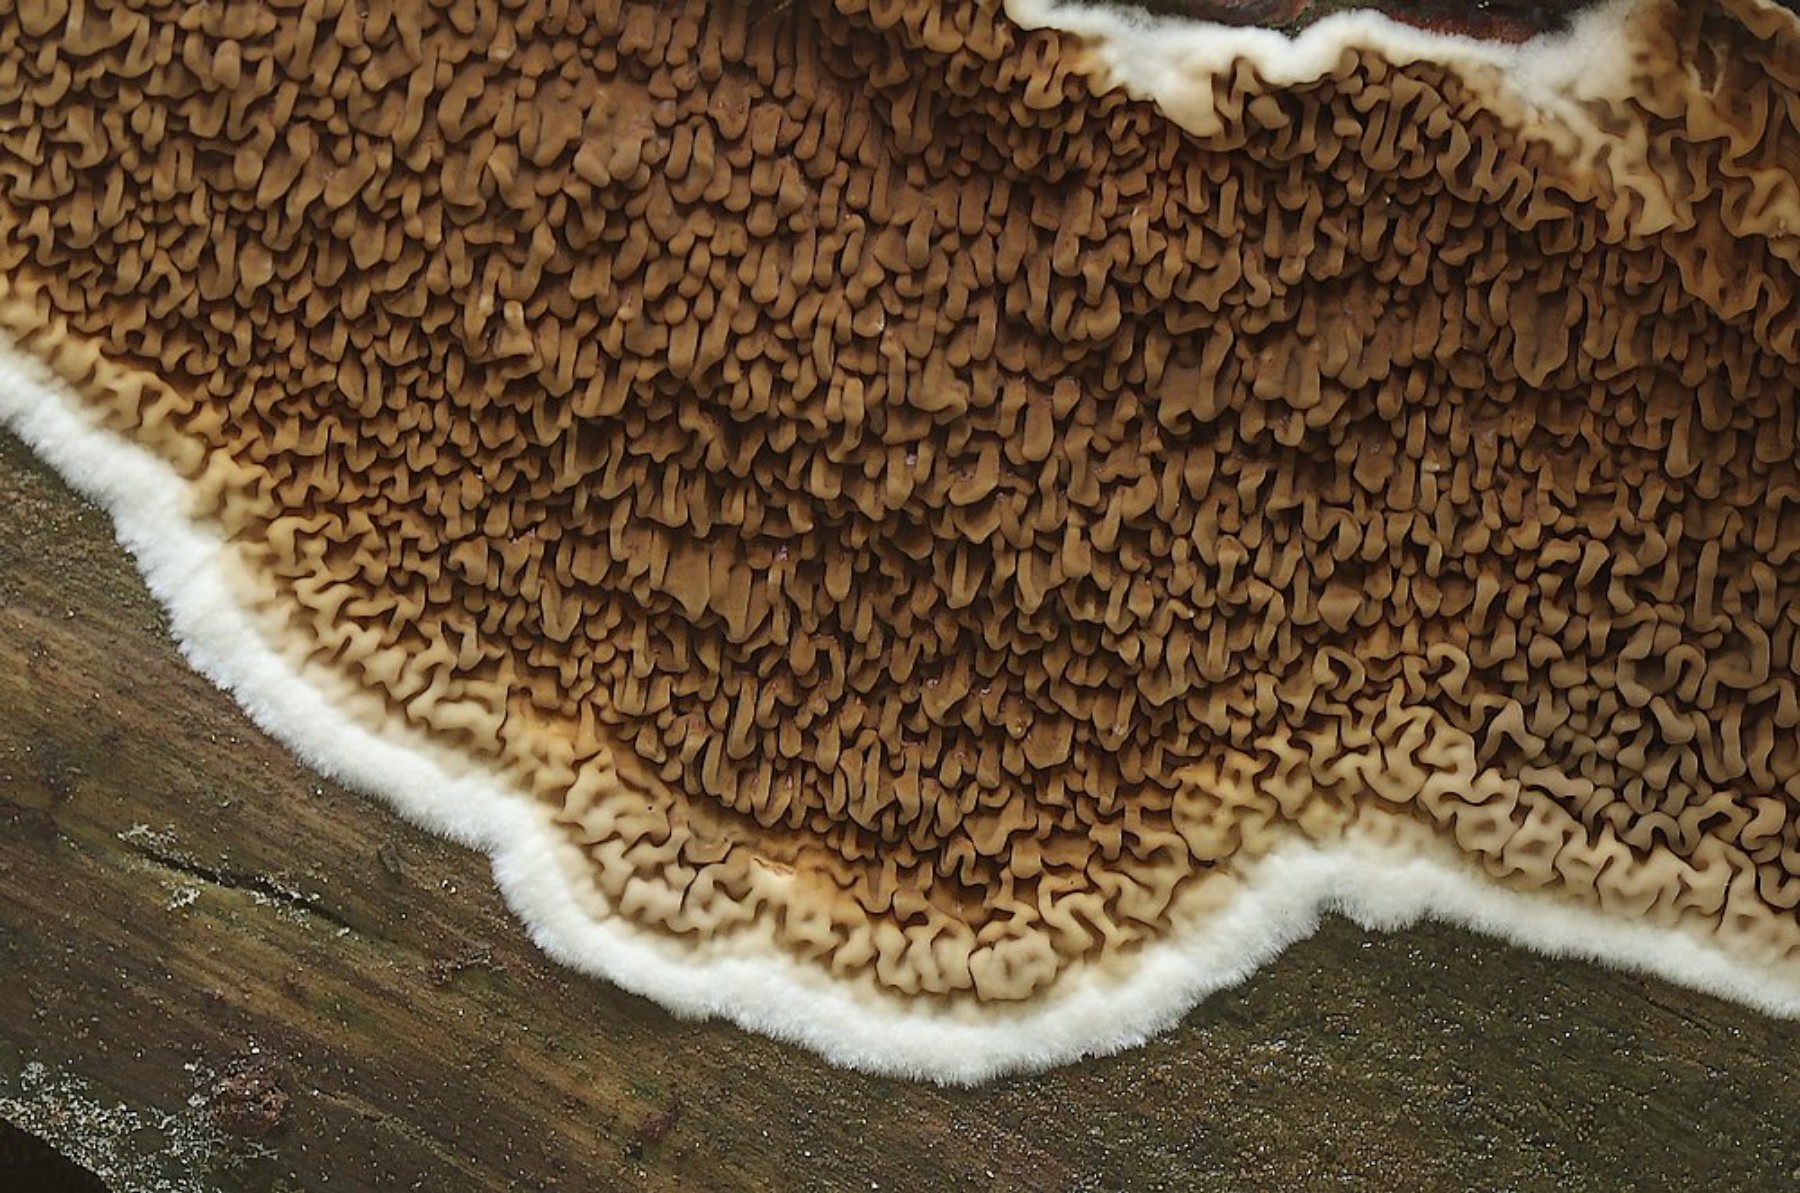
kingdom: Fungi
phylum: Basidiomycota
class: Agaricomycetes
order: Boletales
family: Serpulaceae
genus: Serpula
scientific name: Serpula himantioides
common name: tyndkødet hussvamp
